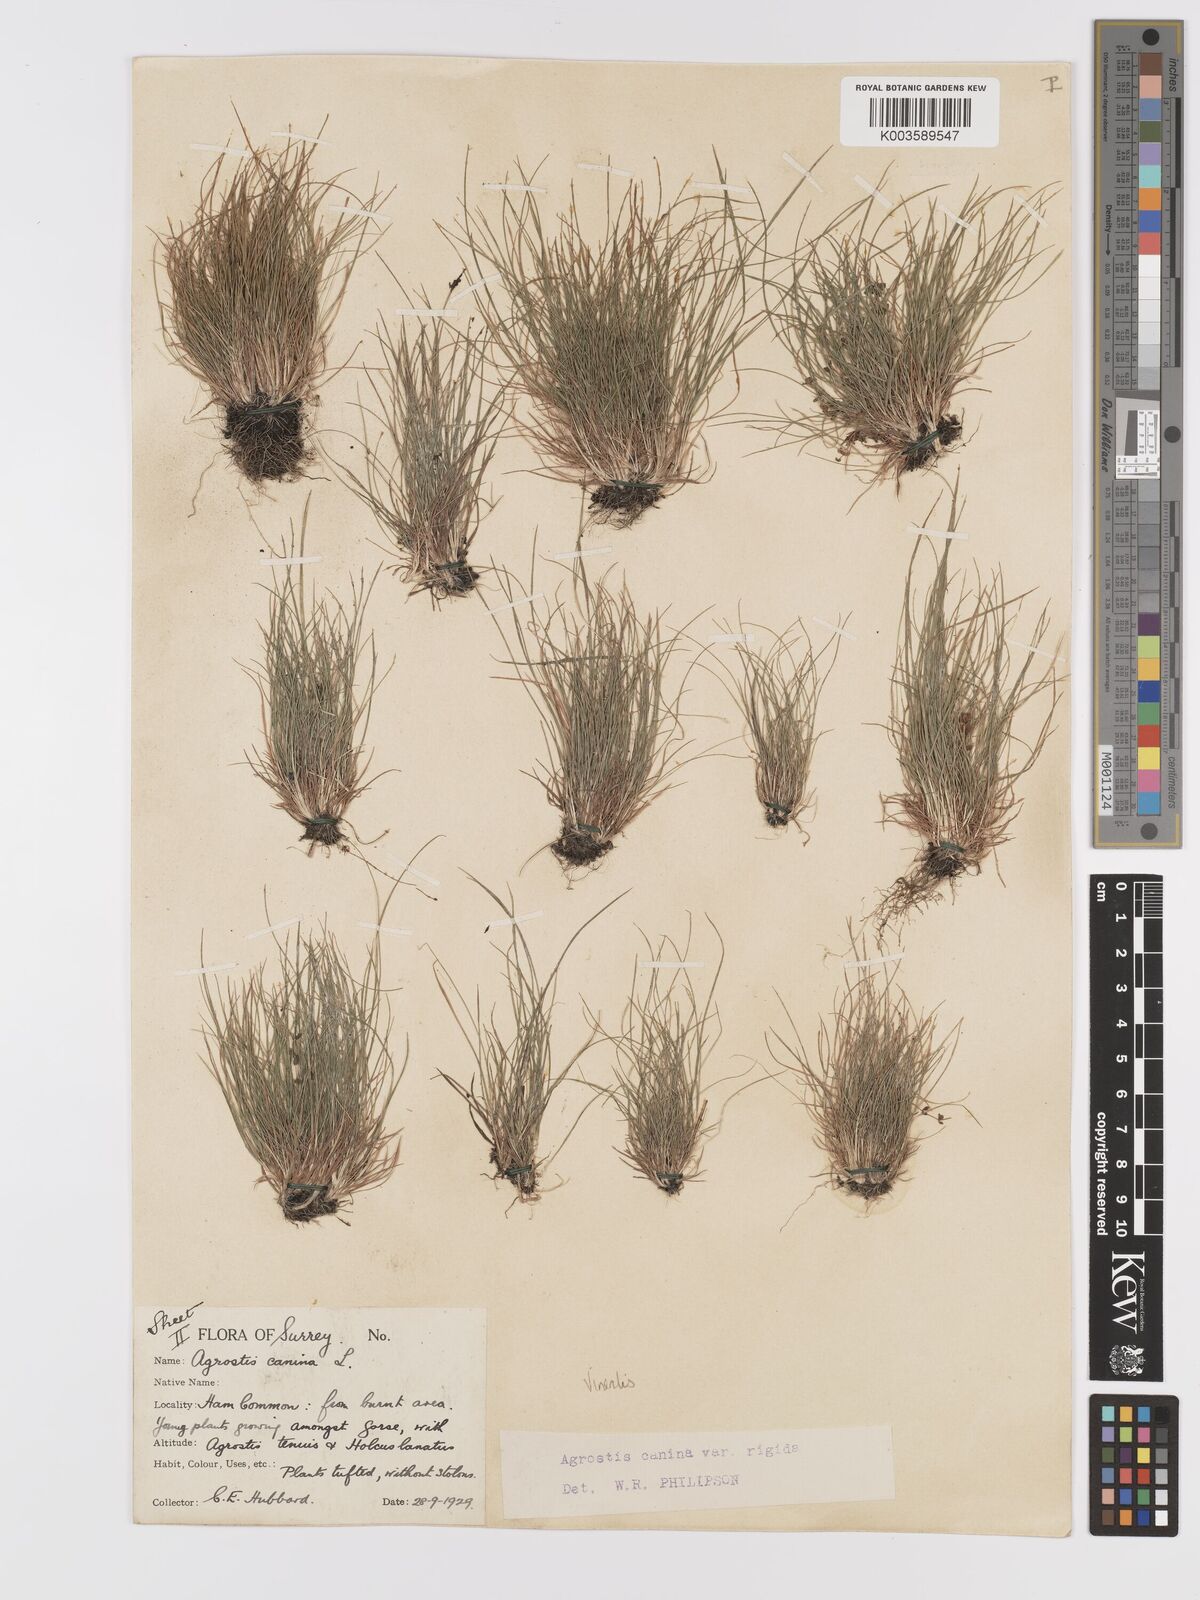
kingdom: Plantae
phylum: Tracheophyta
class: Liliopsida
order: Poales
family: Poaceae
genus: Agrostis
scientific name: Agrostis
